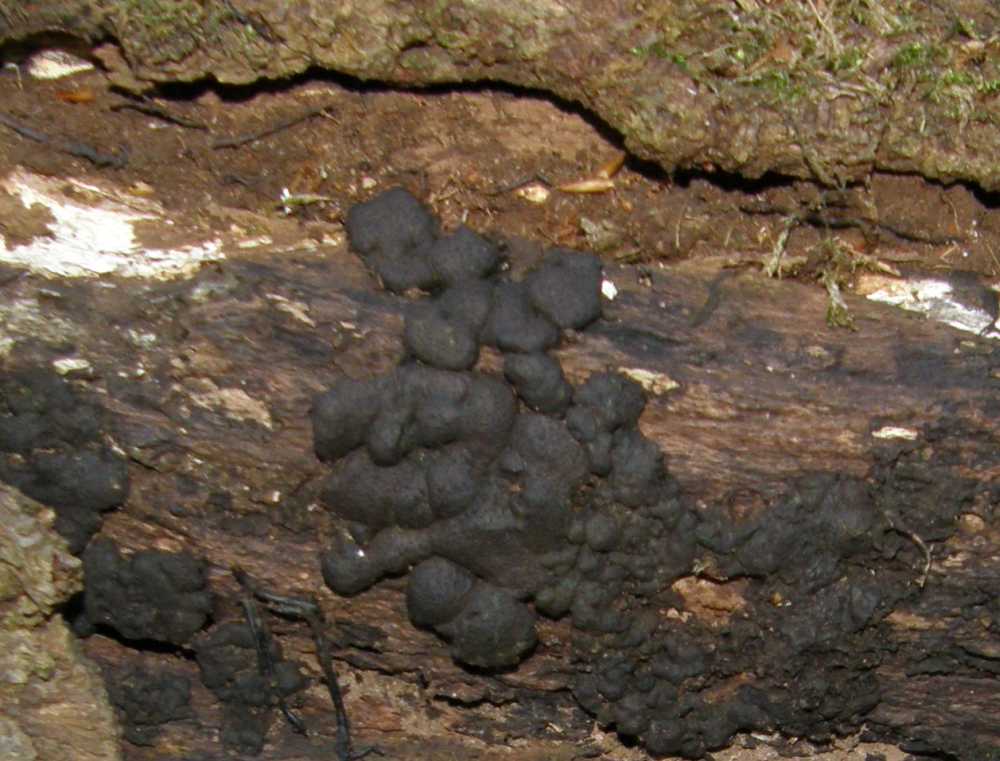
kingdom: Fungi
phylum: Ascomycota
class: Sordariomycetes
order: Xylariales
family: Xylariaceae
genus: Kretzschmaria
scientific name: Kretzschmaria deusta
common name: stor kulsvamp
